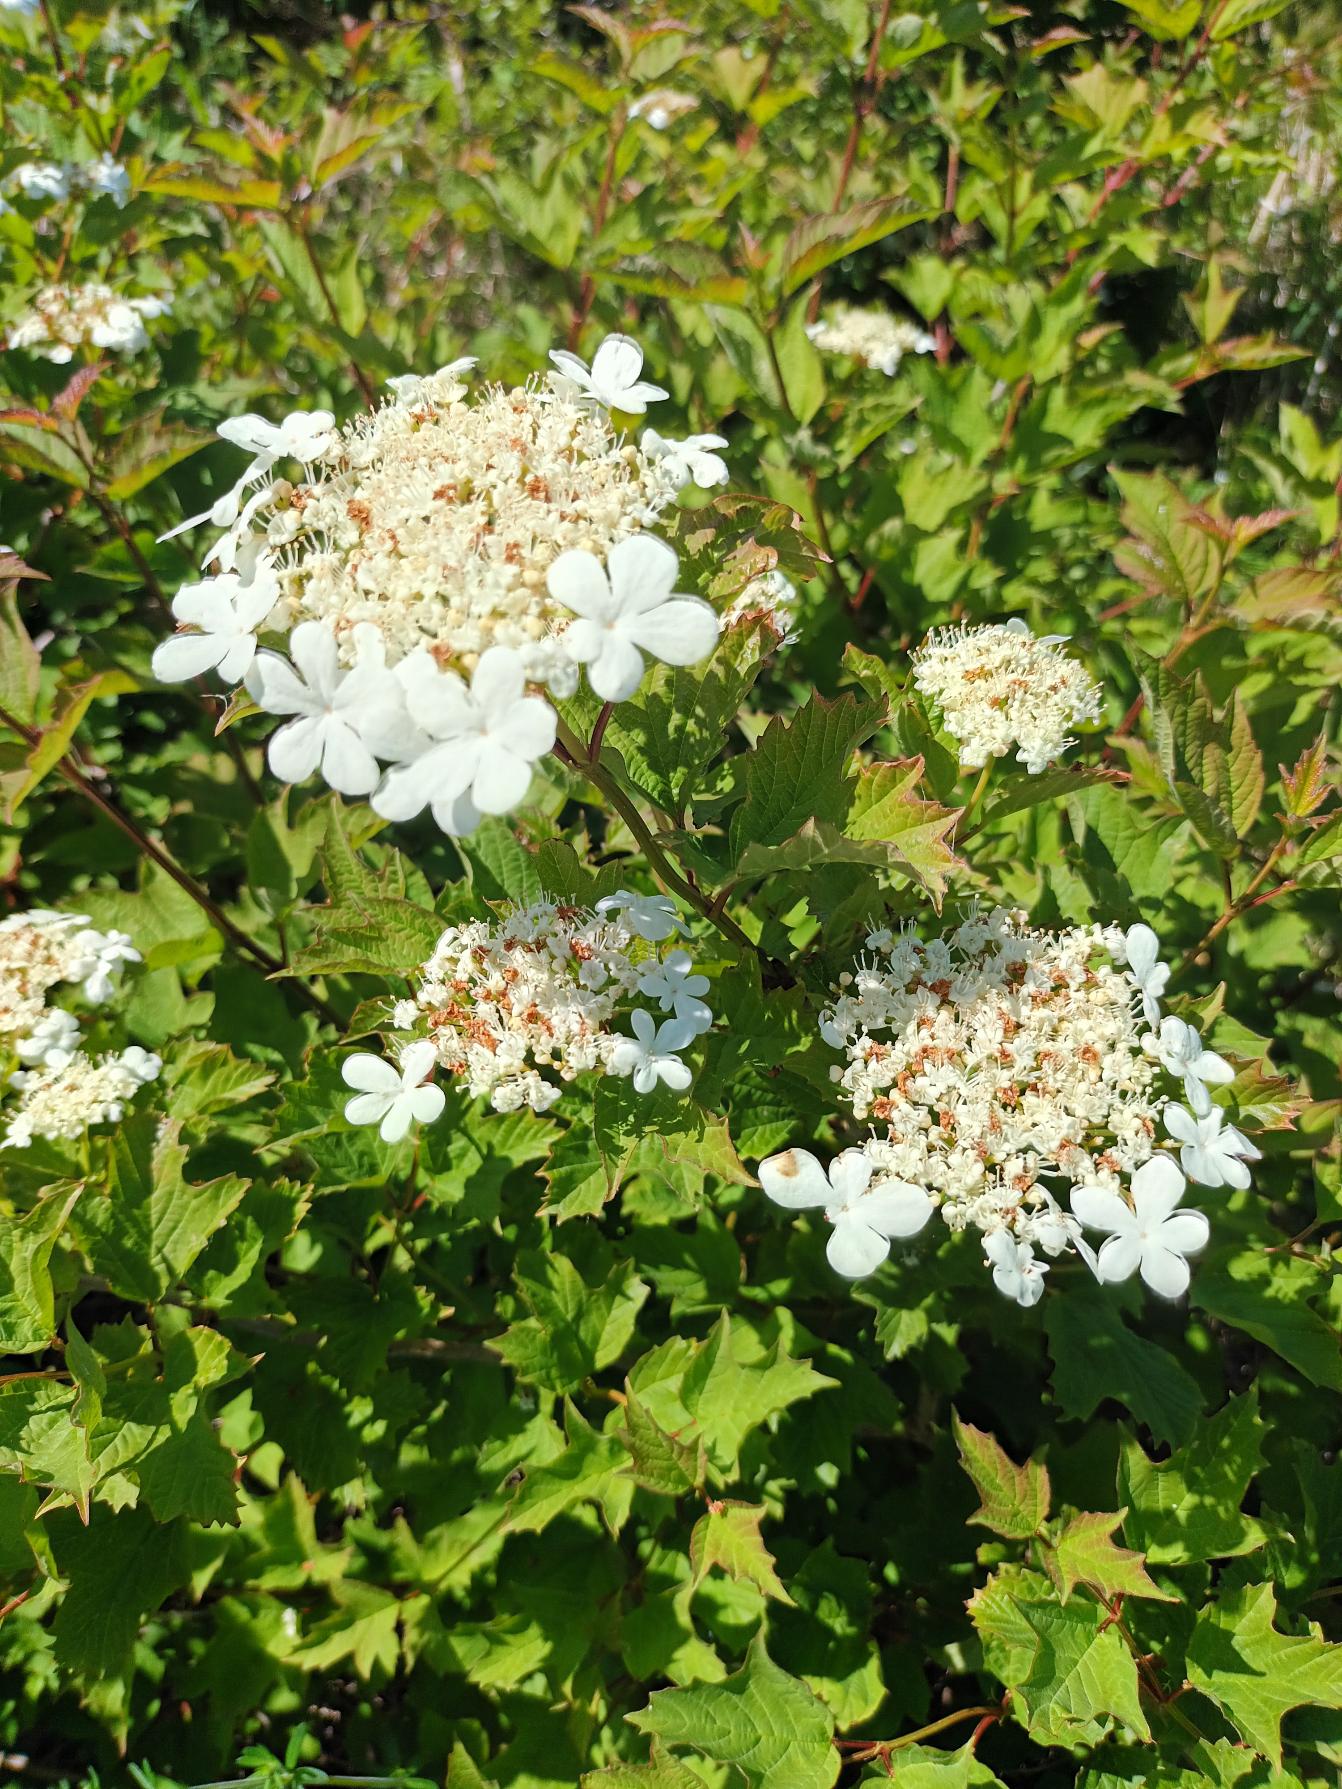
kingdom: Plantae
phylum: Tracheophyta
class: Magnoliopsida
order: Dipsacales
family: Viburnaceae
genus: Viburnum
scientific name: Viburnum opulus
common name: Kvalkved
